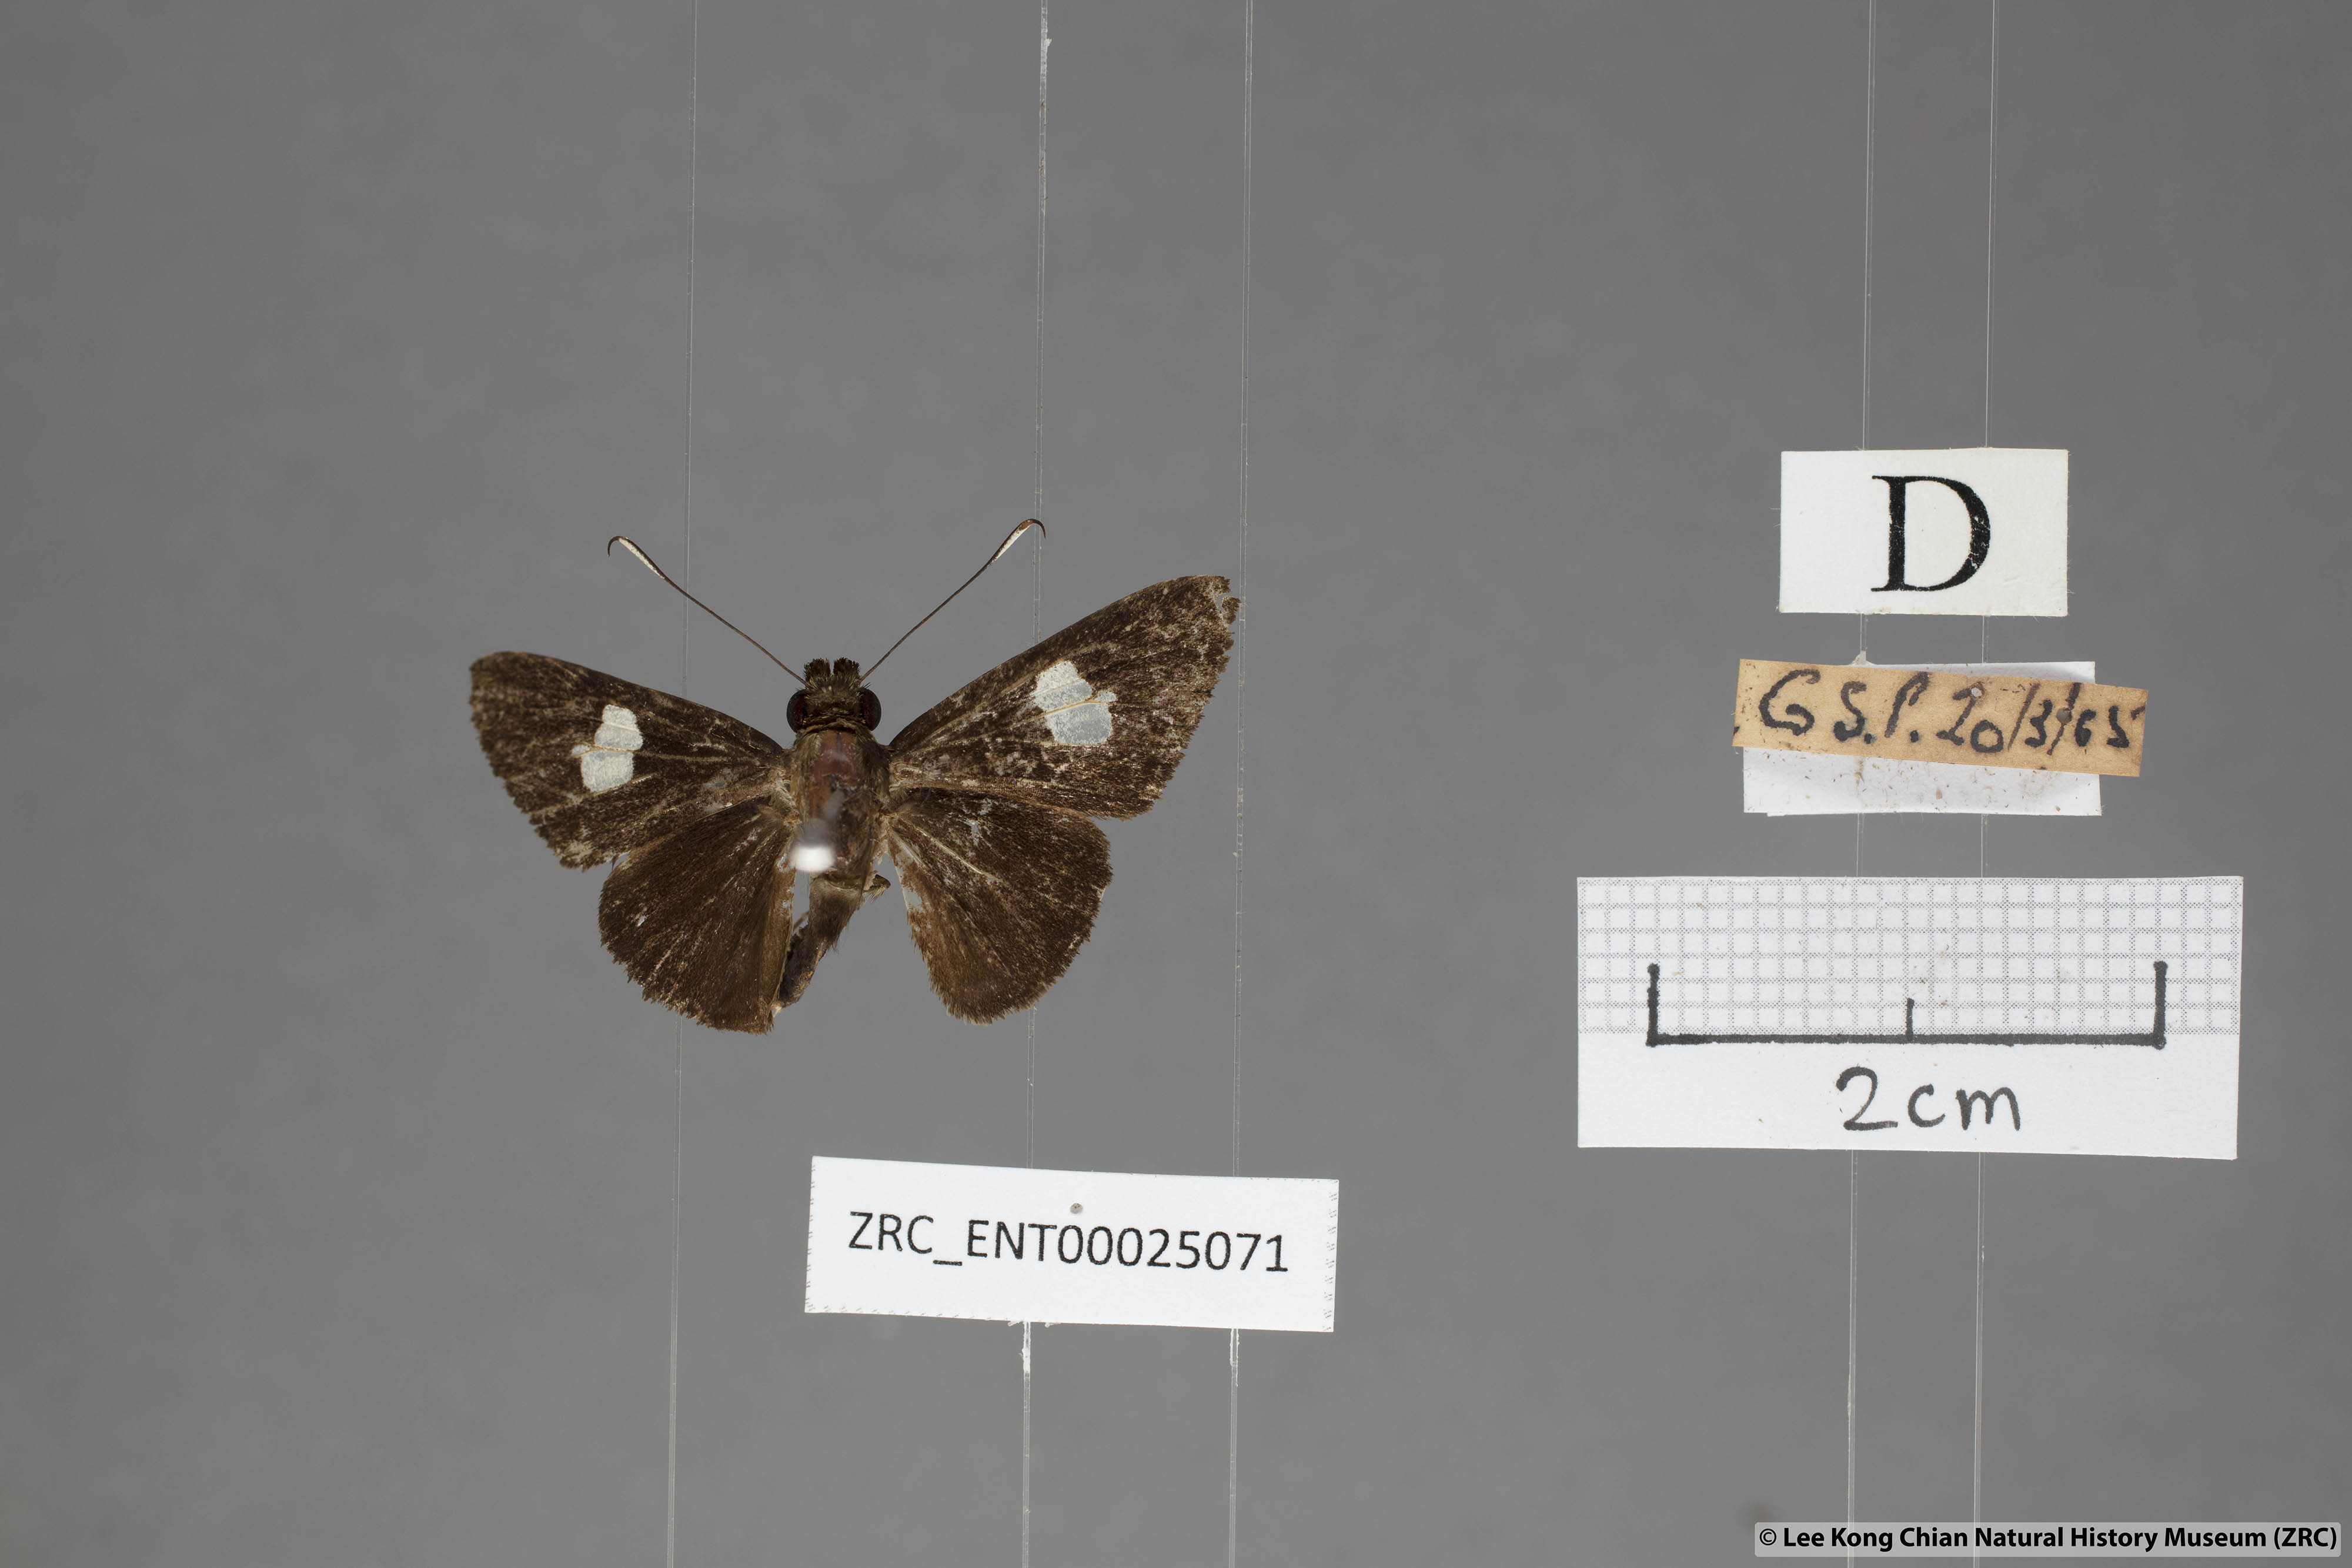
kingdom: Animalia
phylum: Arthropoda
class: Insecta
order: Lepidoptera
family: Hesperiidae
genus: Oerane
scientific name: Oerane microthyrus
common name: White club flitter
